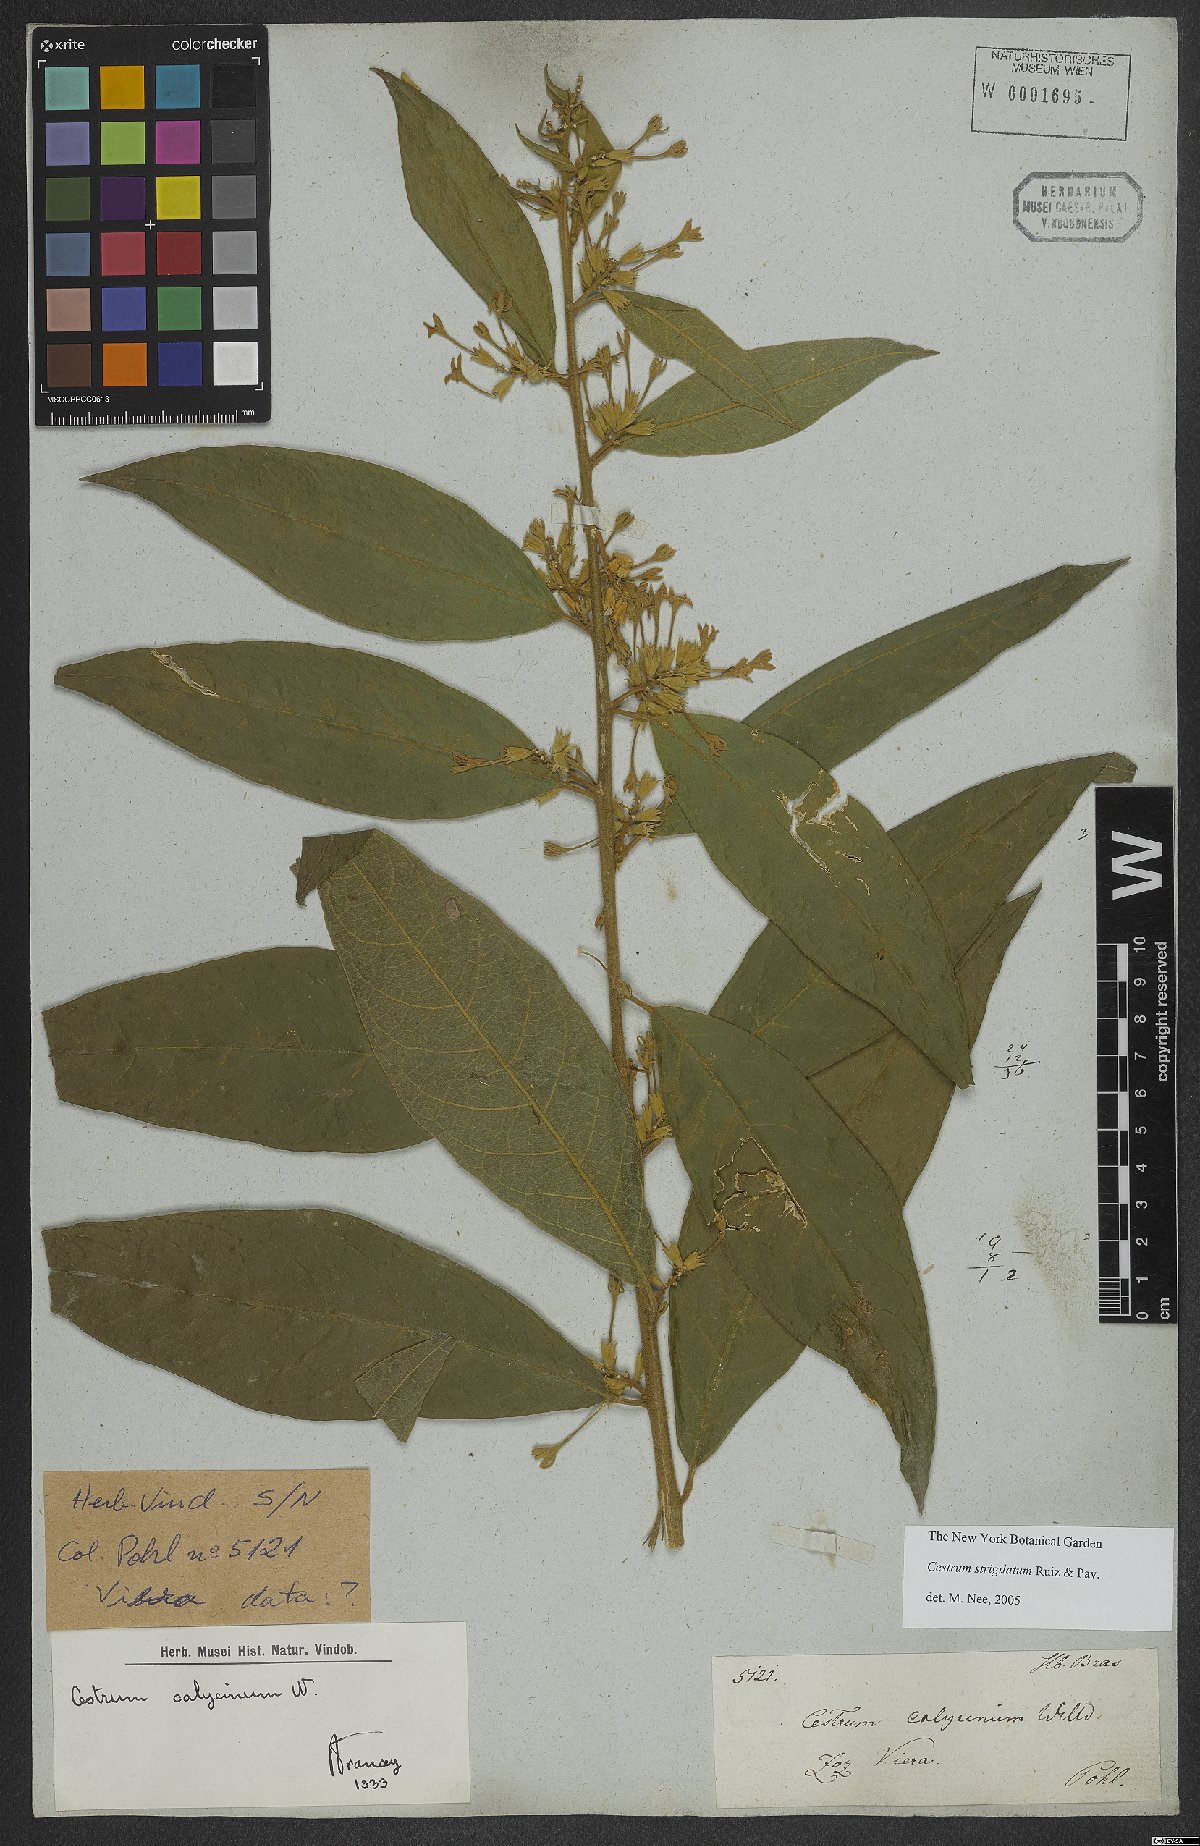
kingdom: Plantae
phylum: Tracheophyta
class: Magnoliopsida
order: Solanales
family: Solanaceae
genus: Cestrum
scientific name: Cestrum strigillatum
